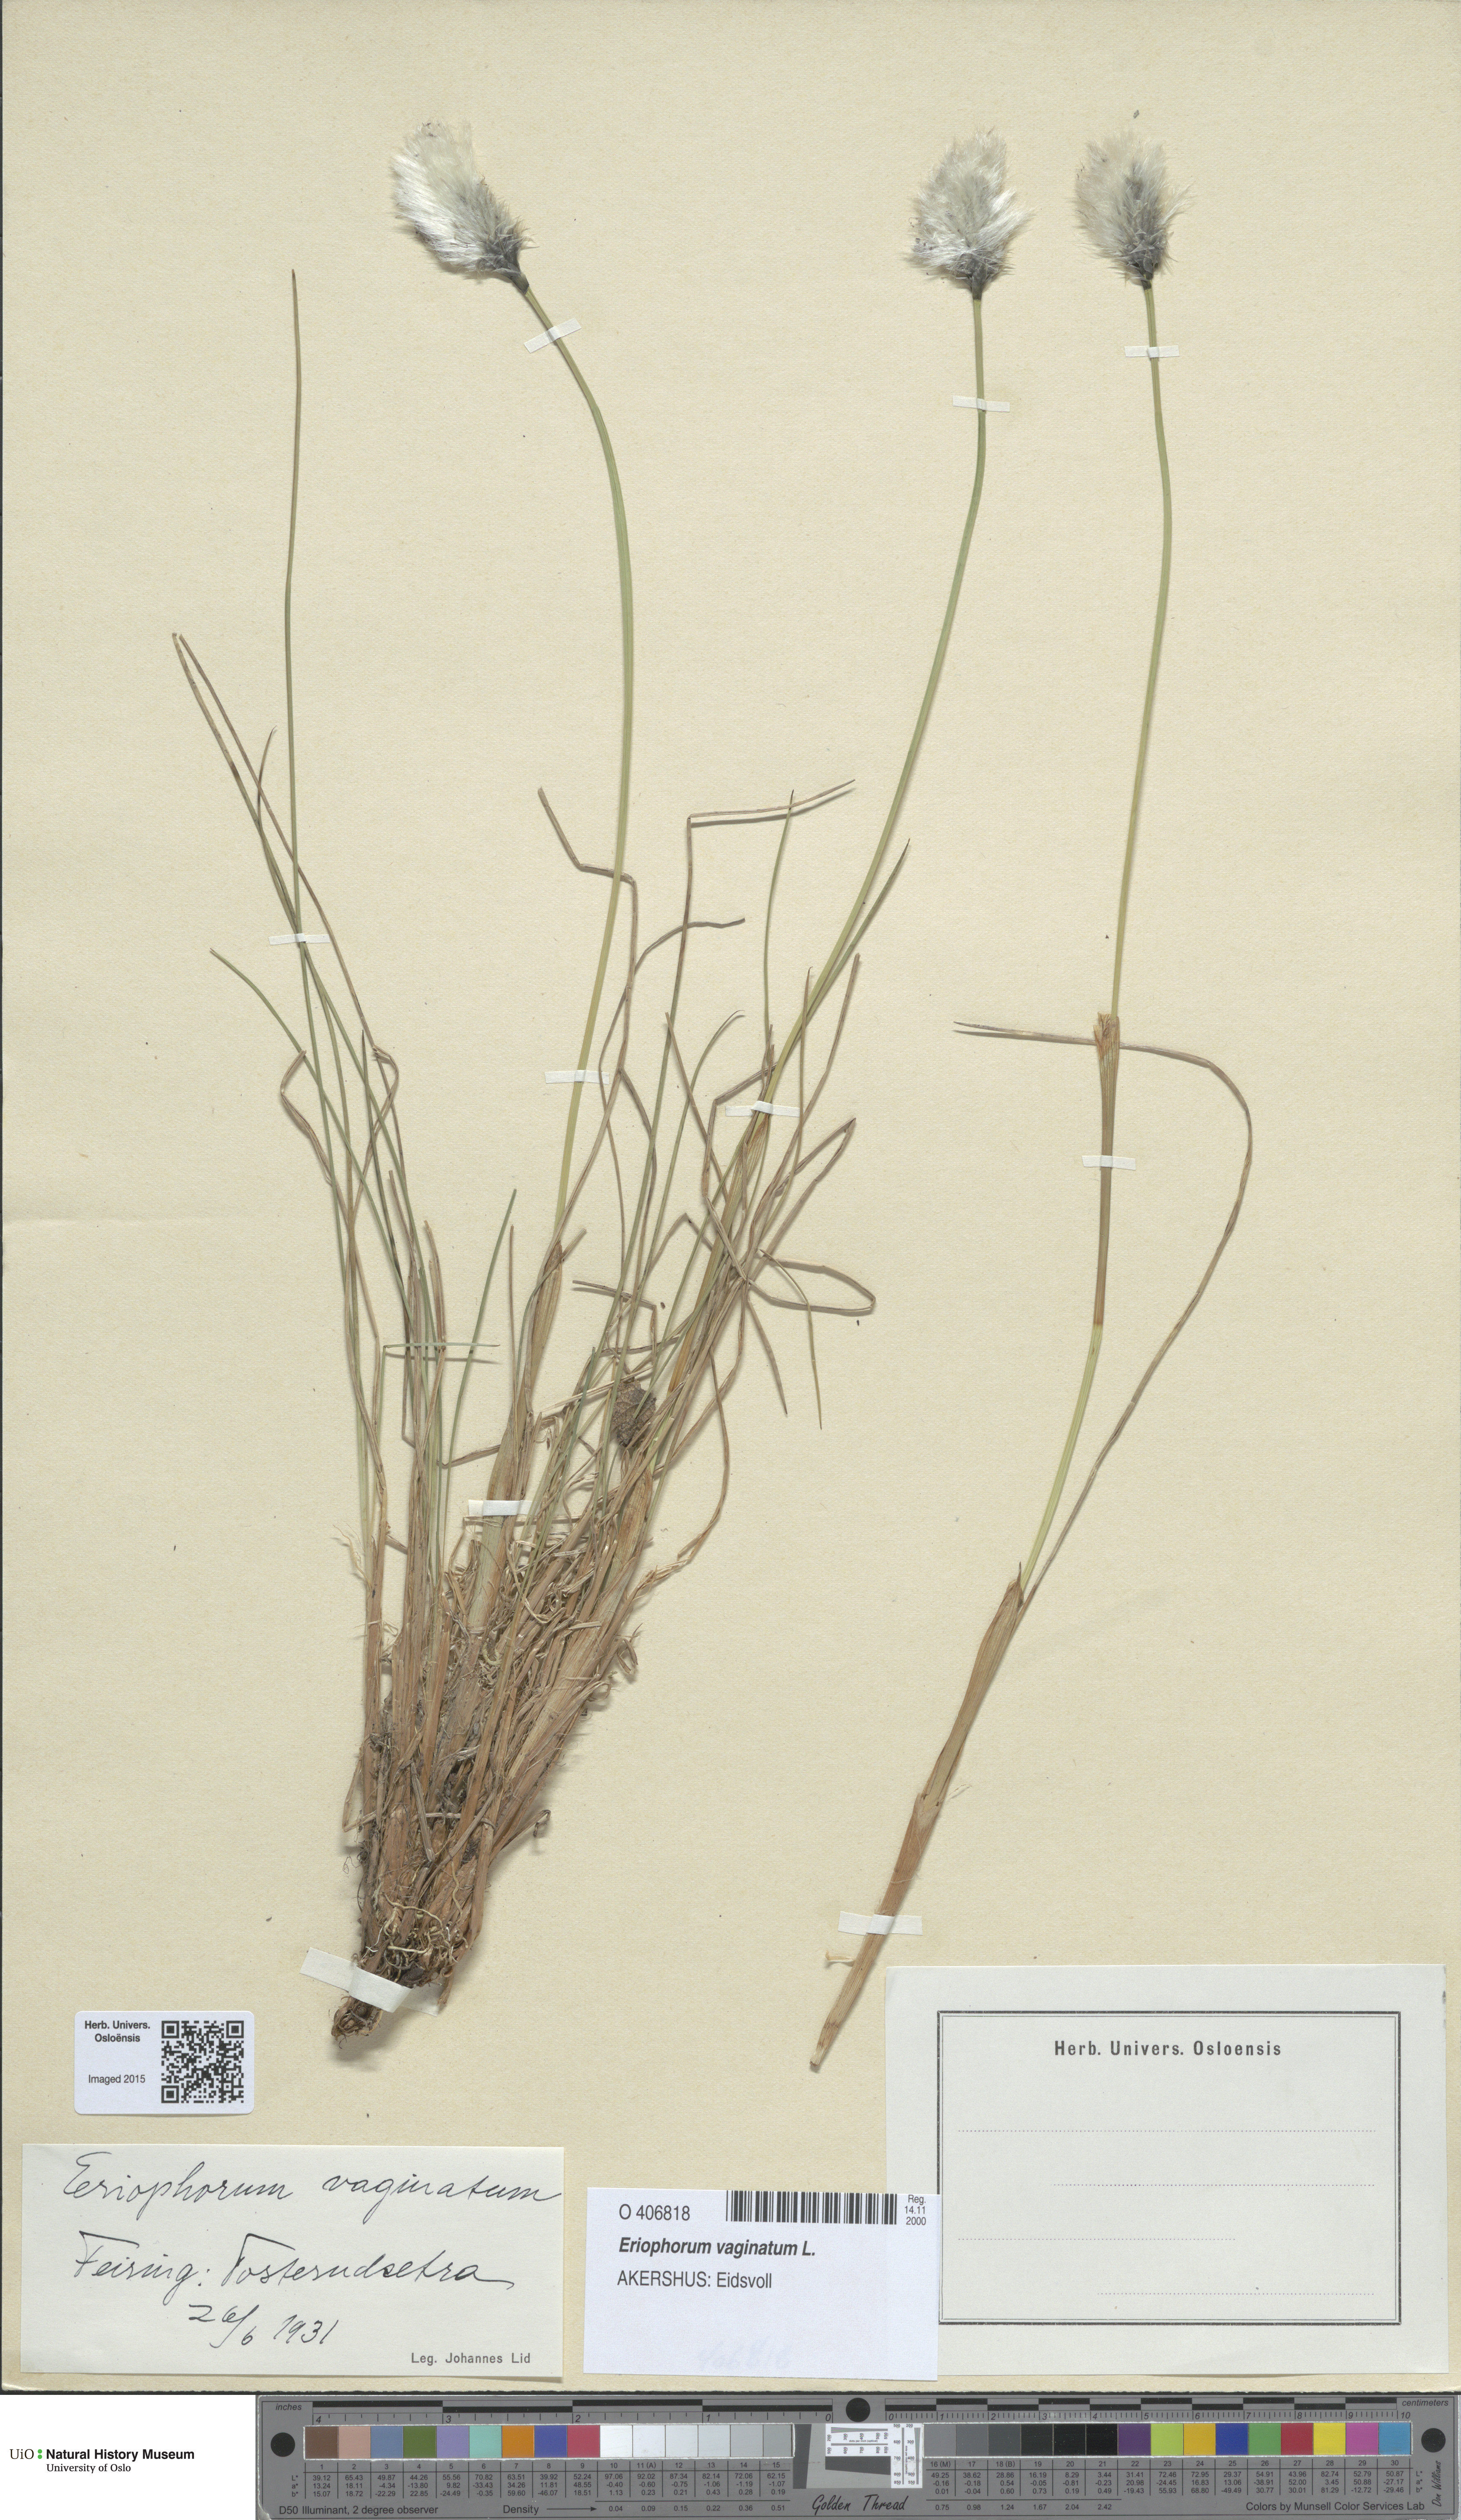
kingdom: Plantae
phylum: Tracheophyta
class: Liliopsida
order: Poales
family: Cyperaceae
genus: Eriophorum
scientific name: Eriophorum vaginatum
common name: Hare's-tail cottongrass
